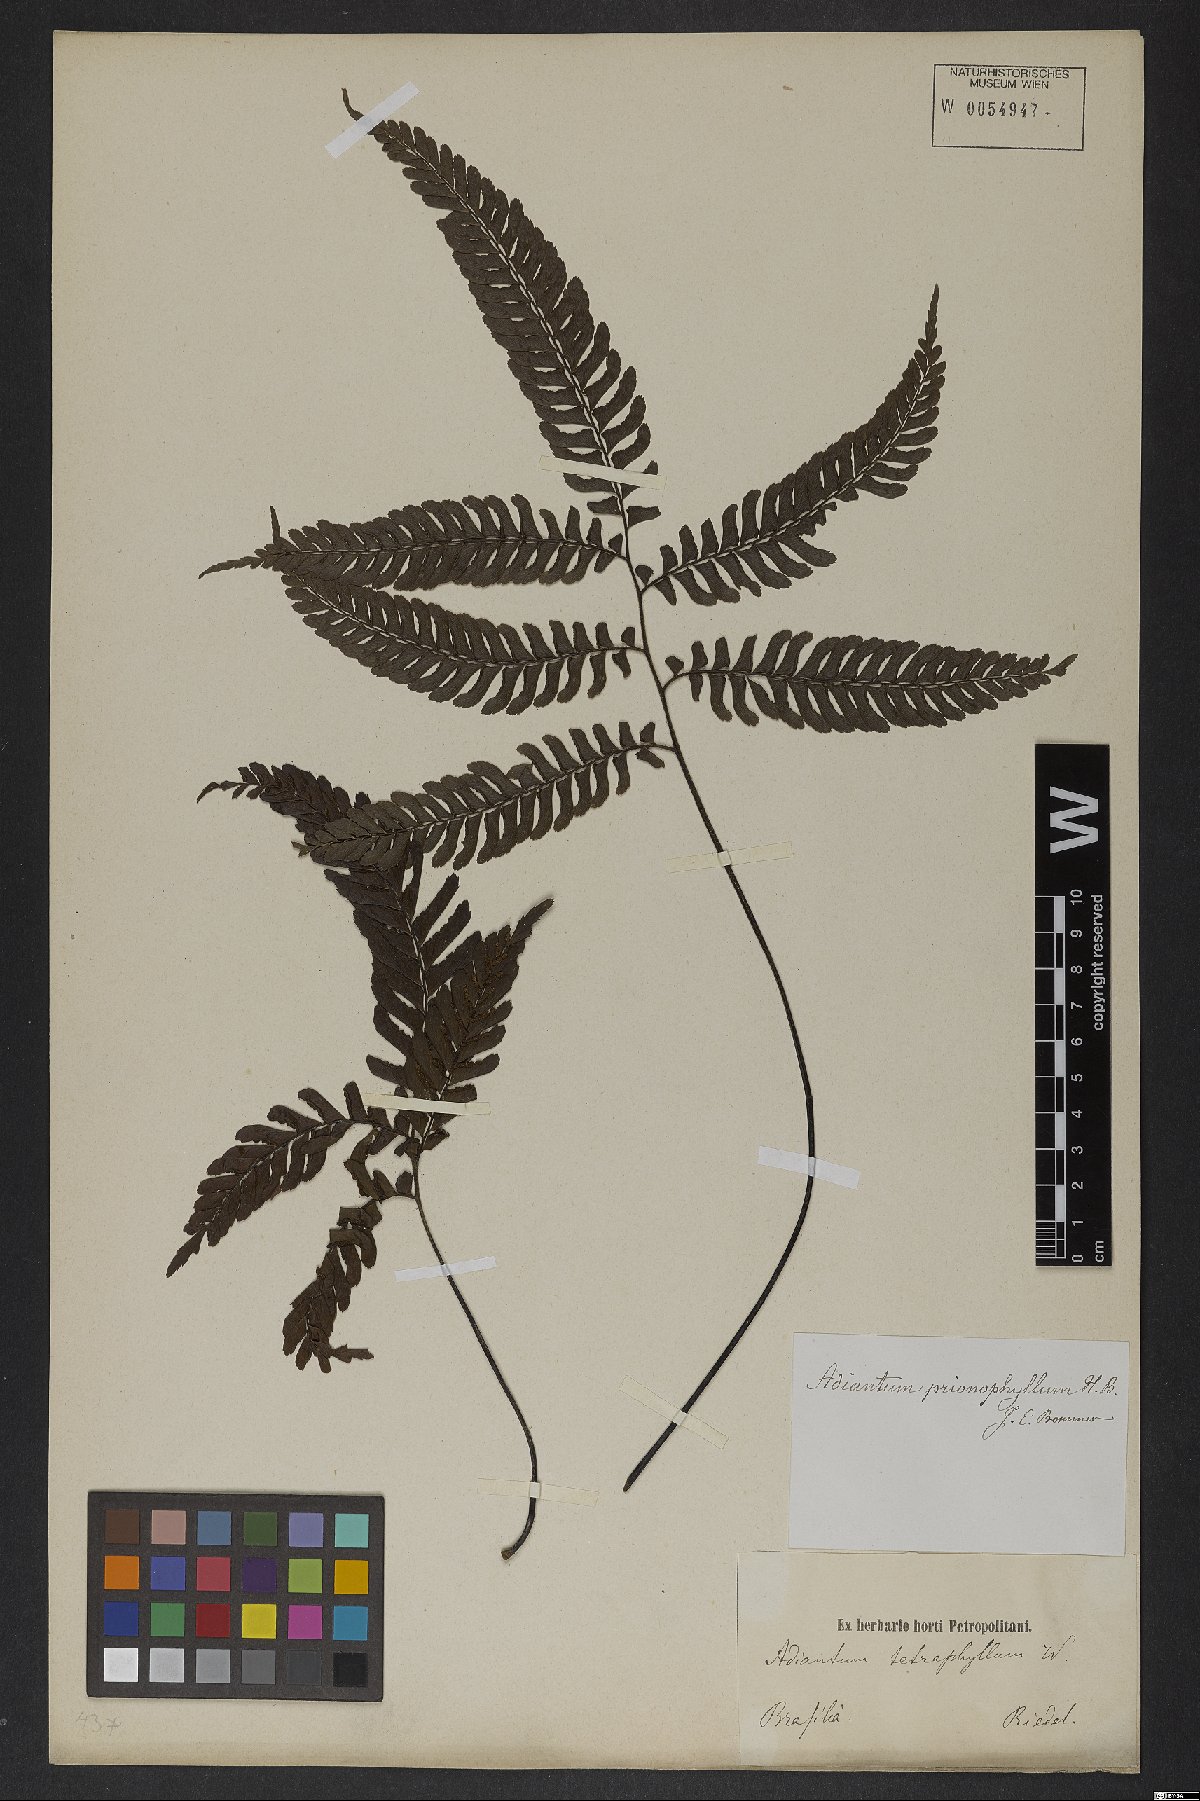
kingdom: Plantae
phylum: Tracheophyta
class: Polypodiopsida
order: Polypodiales
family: Pteridaceae
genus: Adiantum
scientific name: Adiantum tetraphyllum
